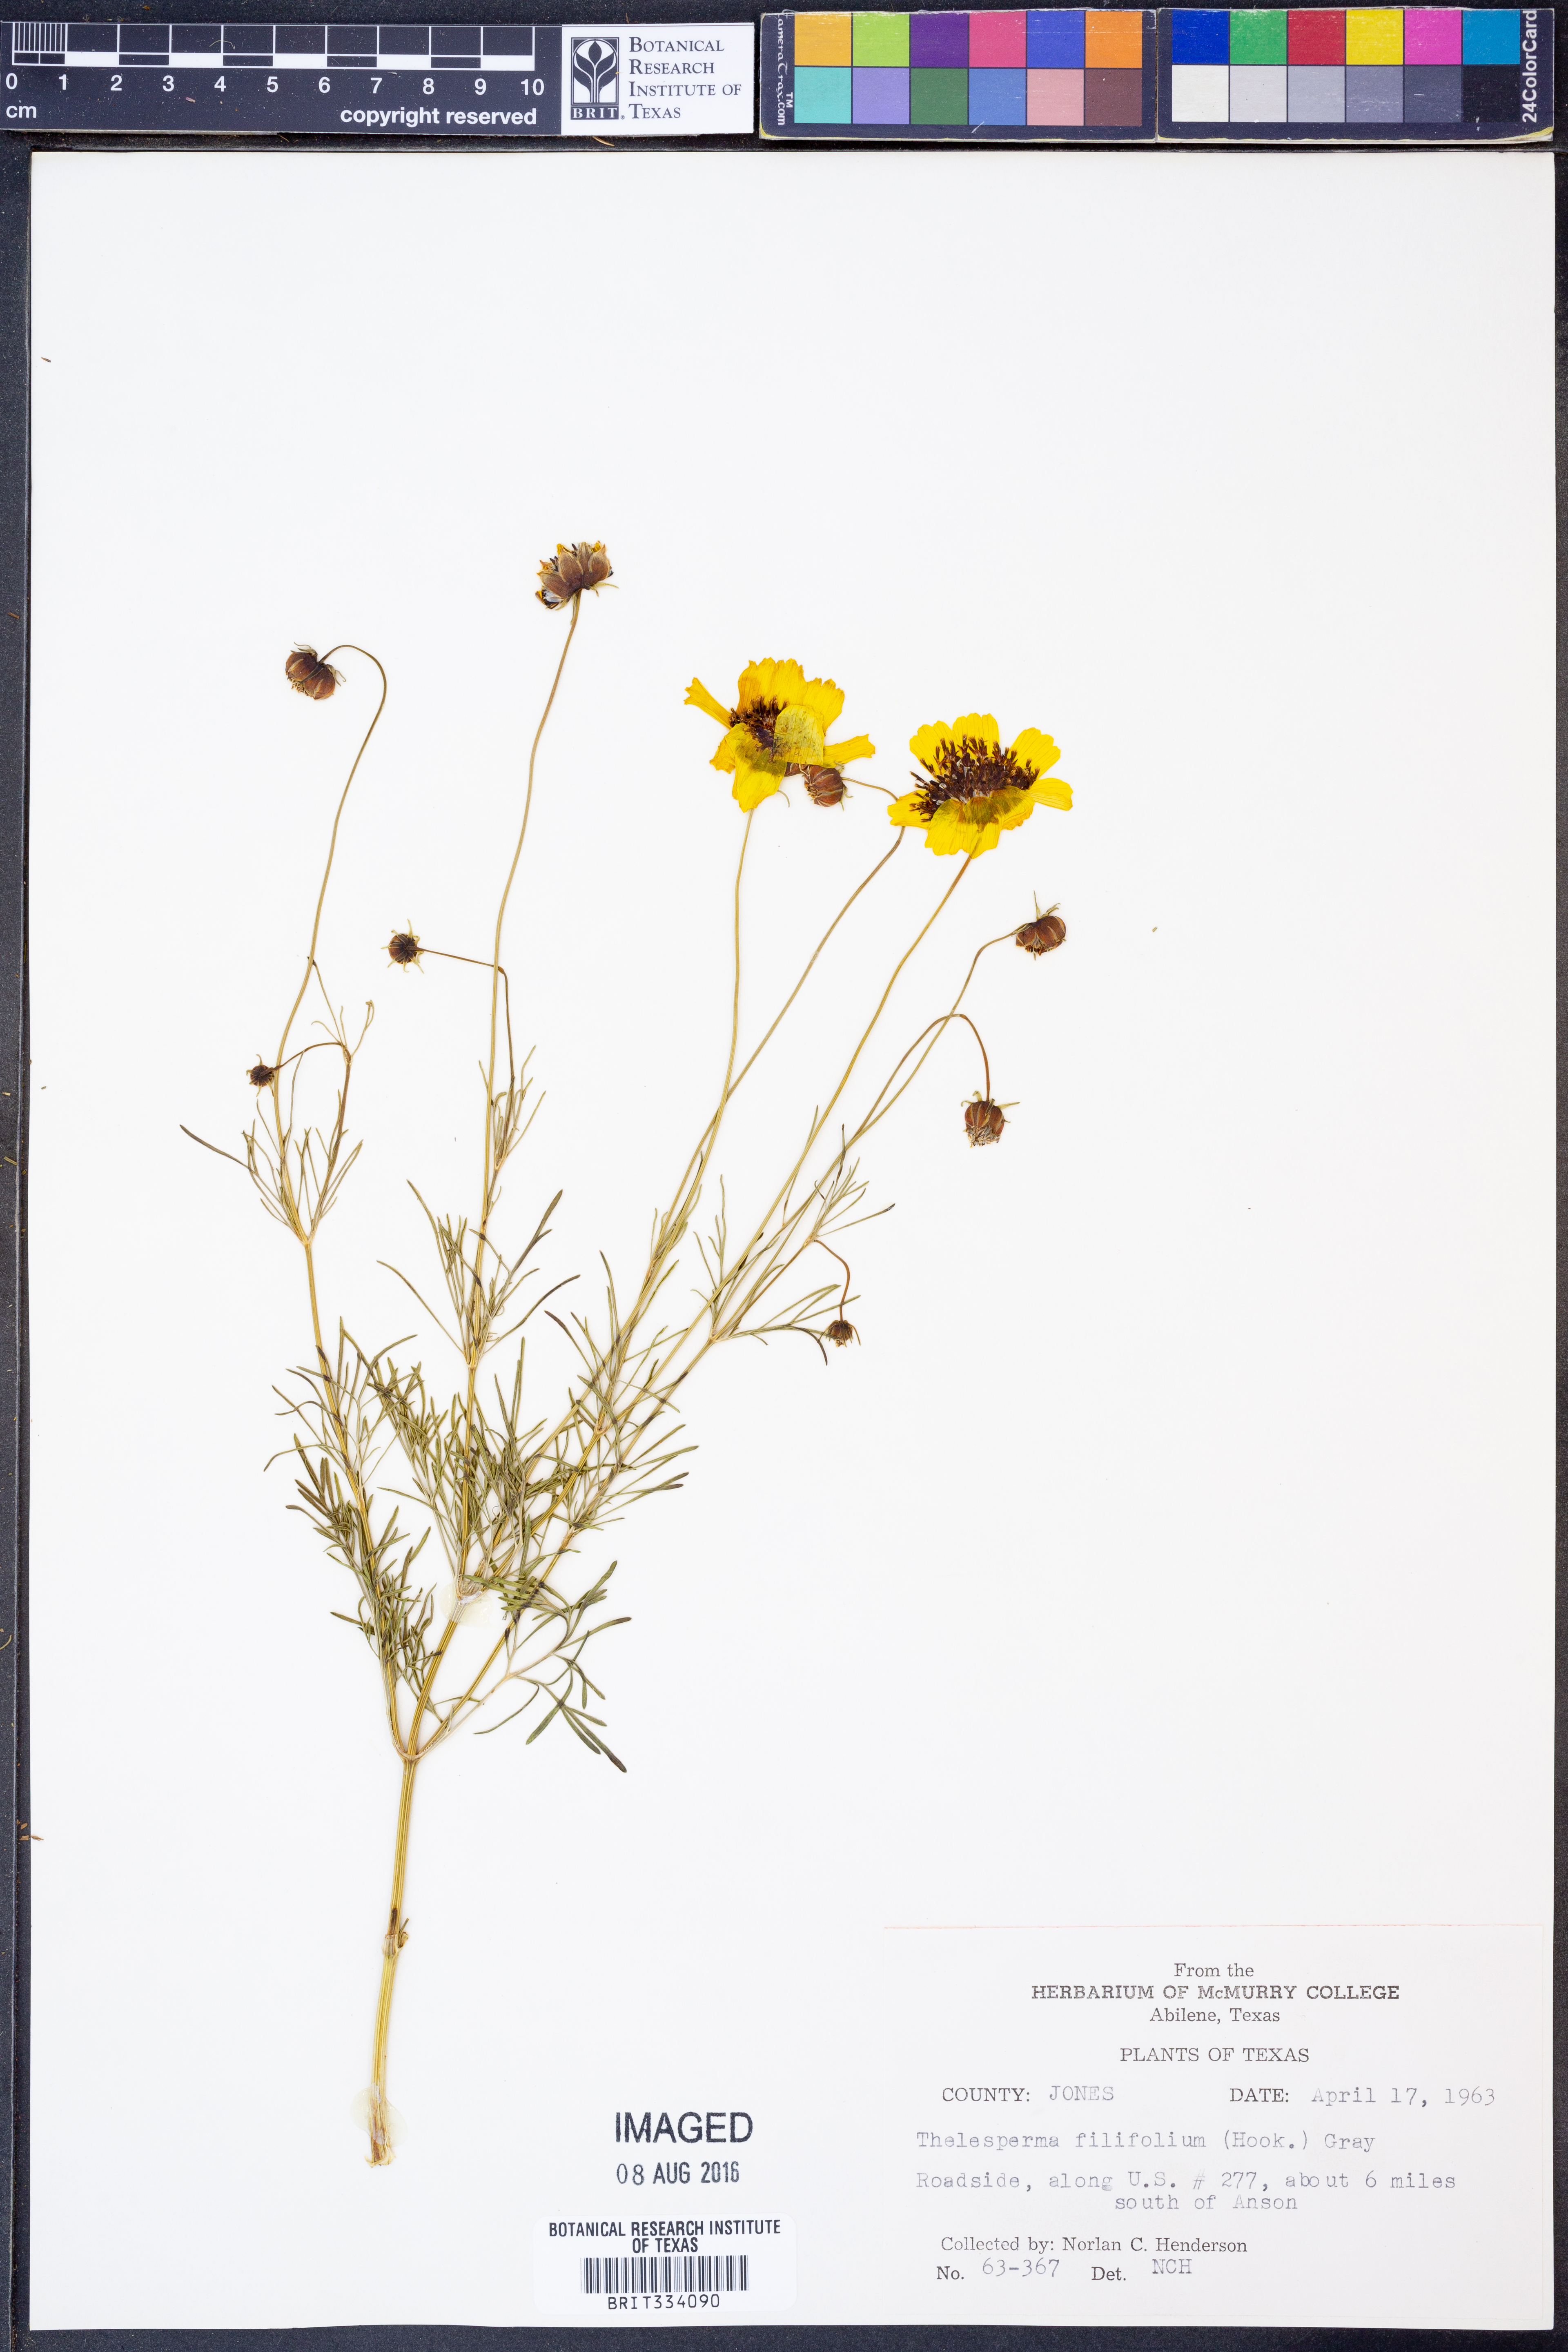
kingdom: Plantae
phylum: Tracheophyta
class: Magnoliopsida
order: Asterales
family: Asteraceae
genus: Thelesperma
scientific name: Thelesperma filifolium
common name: Stiff greenthread
